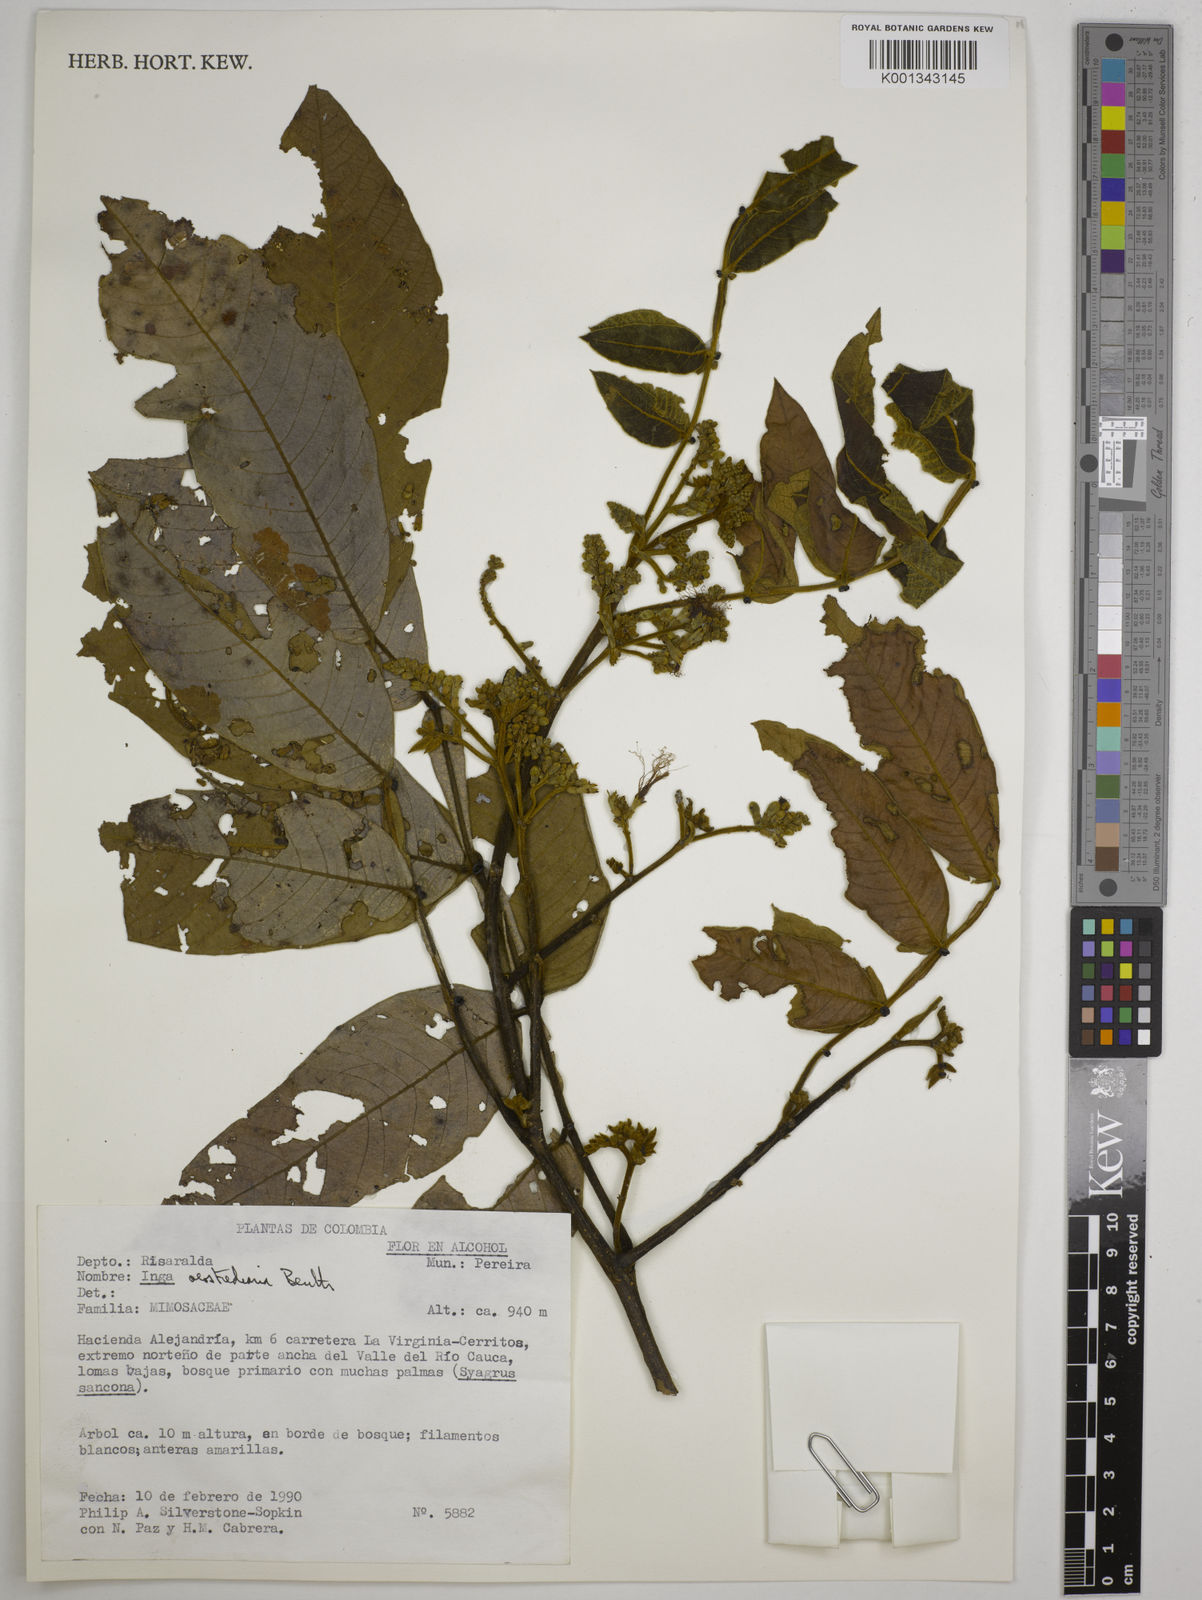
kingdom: Plantae
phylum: Tracheophyta
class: Magnoliopsida
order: Fabales
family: Fabaceae
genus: Inga
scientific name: Inga oerstediana
